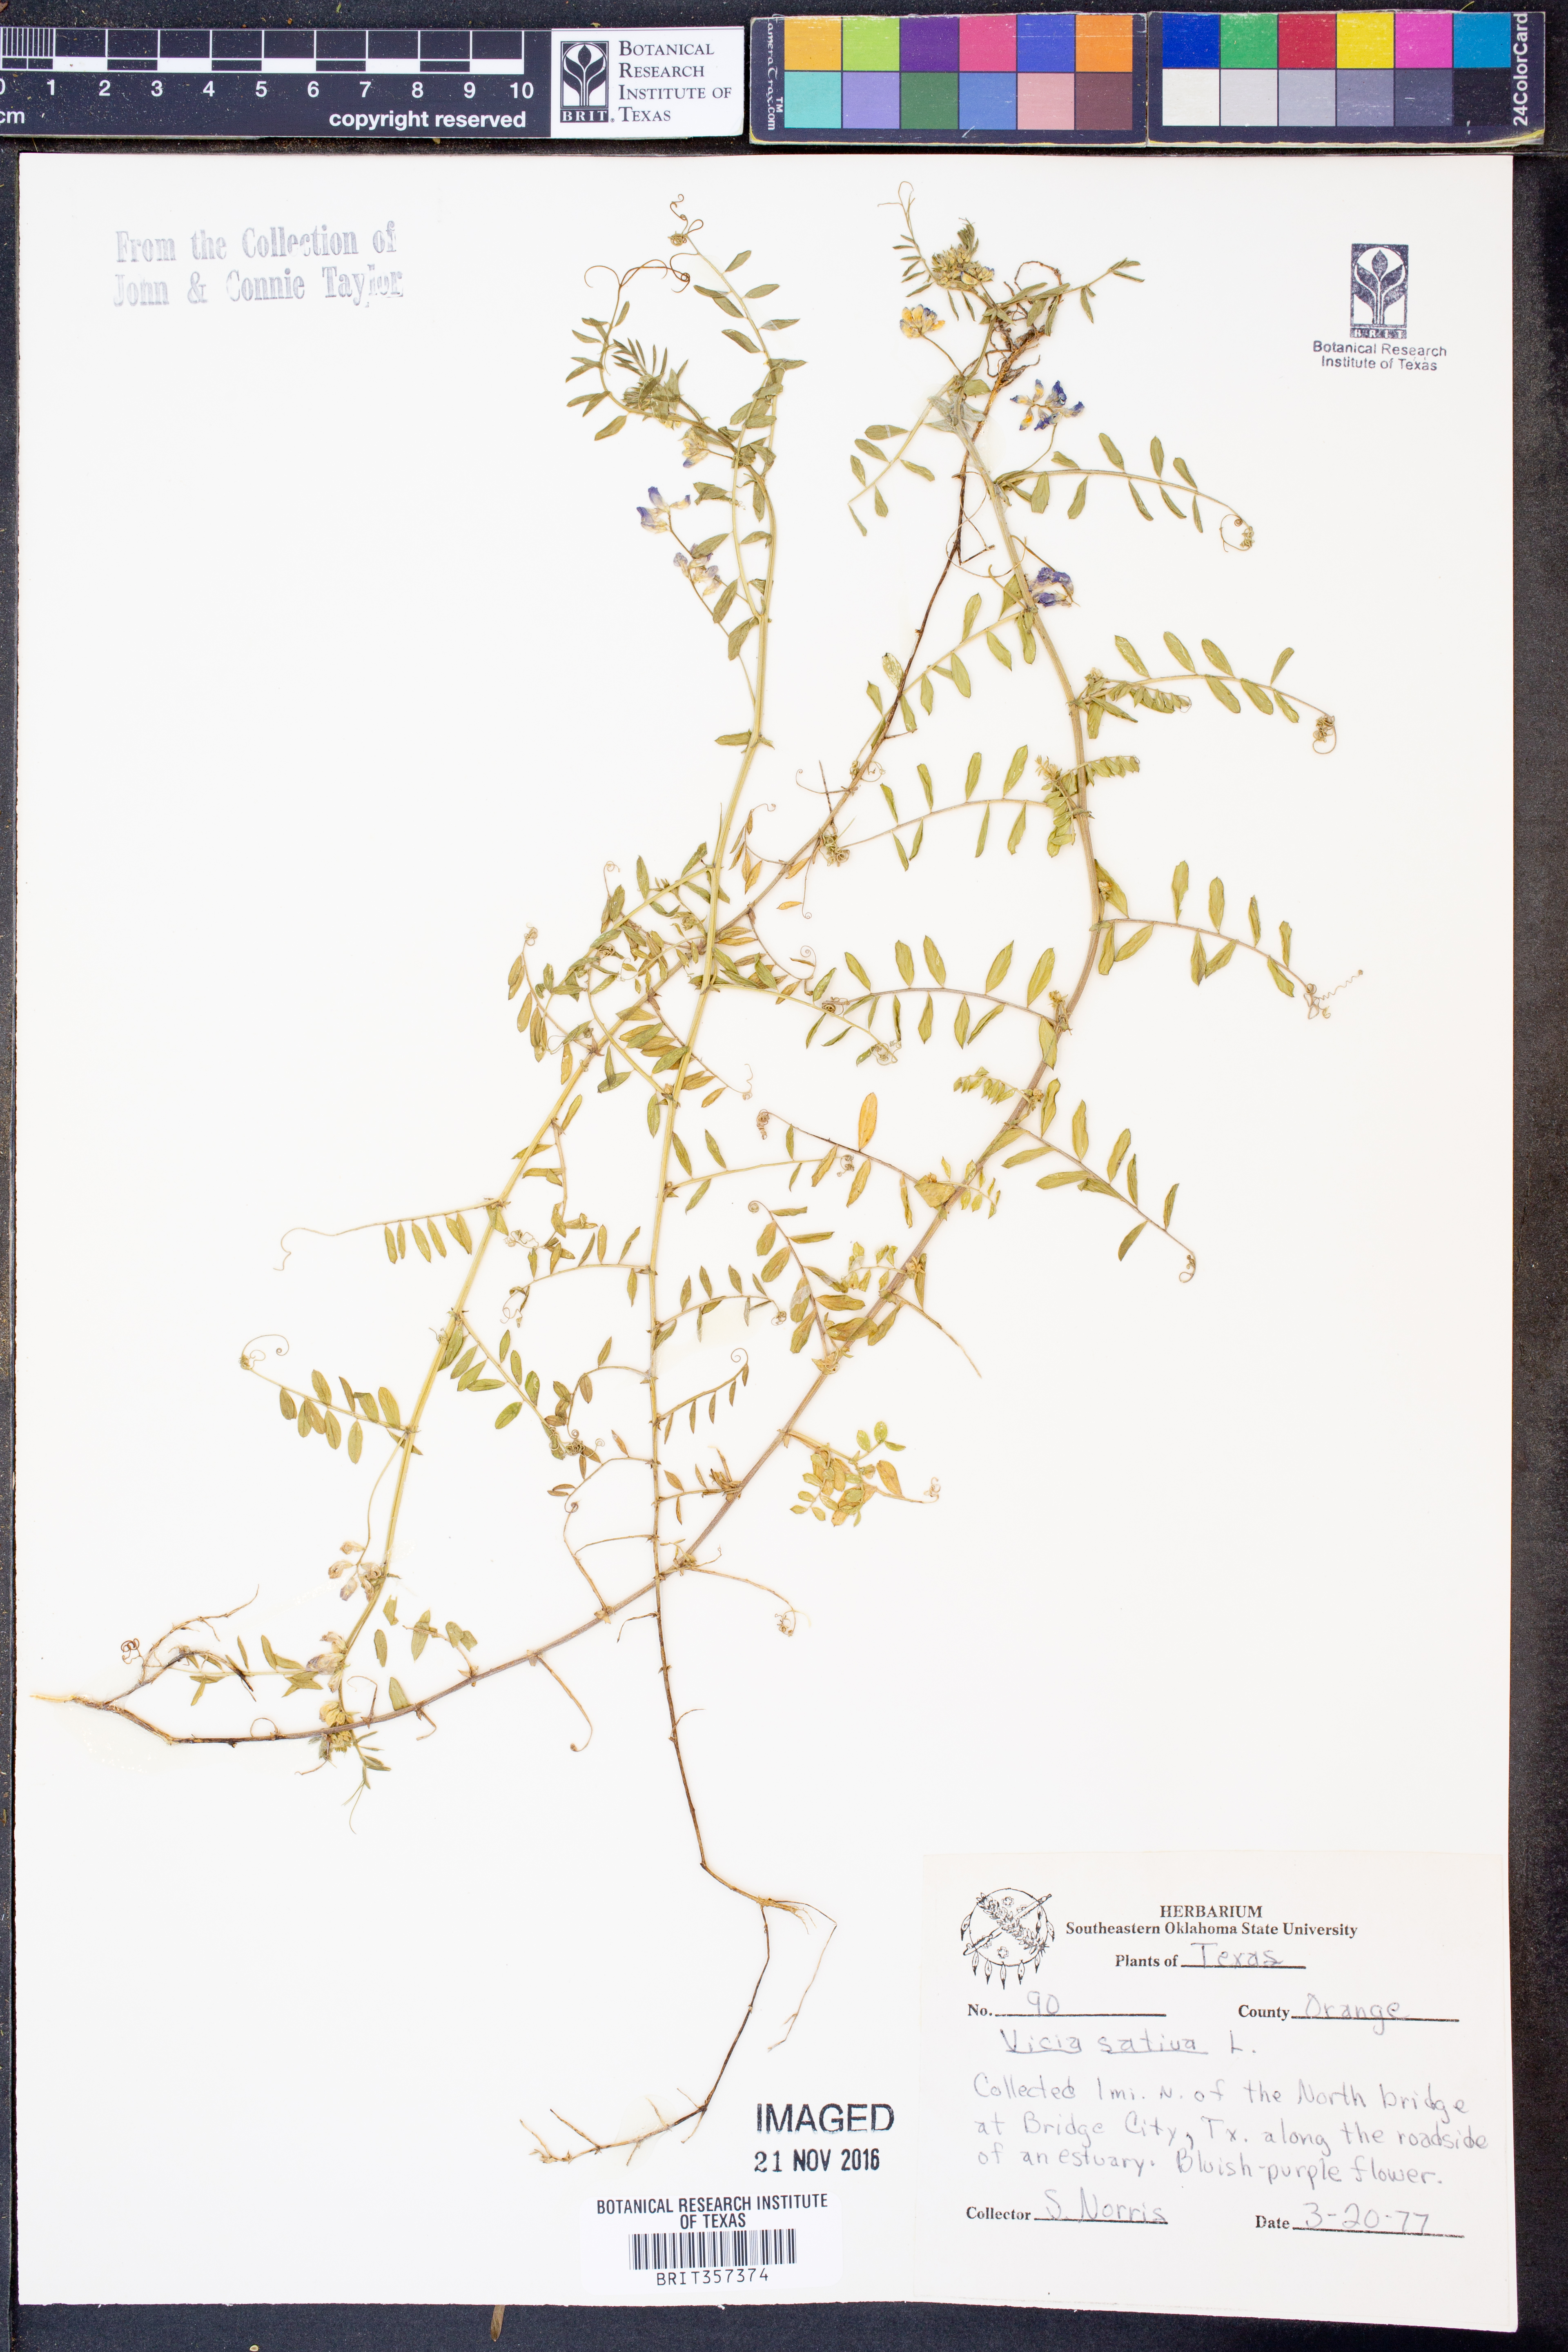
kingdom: Plantae
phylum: Tracheophyta
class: Magnoliopsida
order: Fabales
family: Fabaceae
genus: Vicia
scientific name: Vicia sativa
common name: Garden vetch
